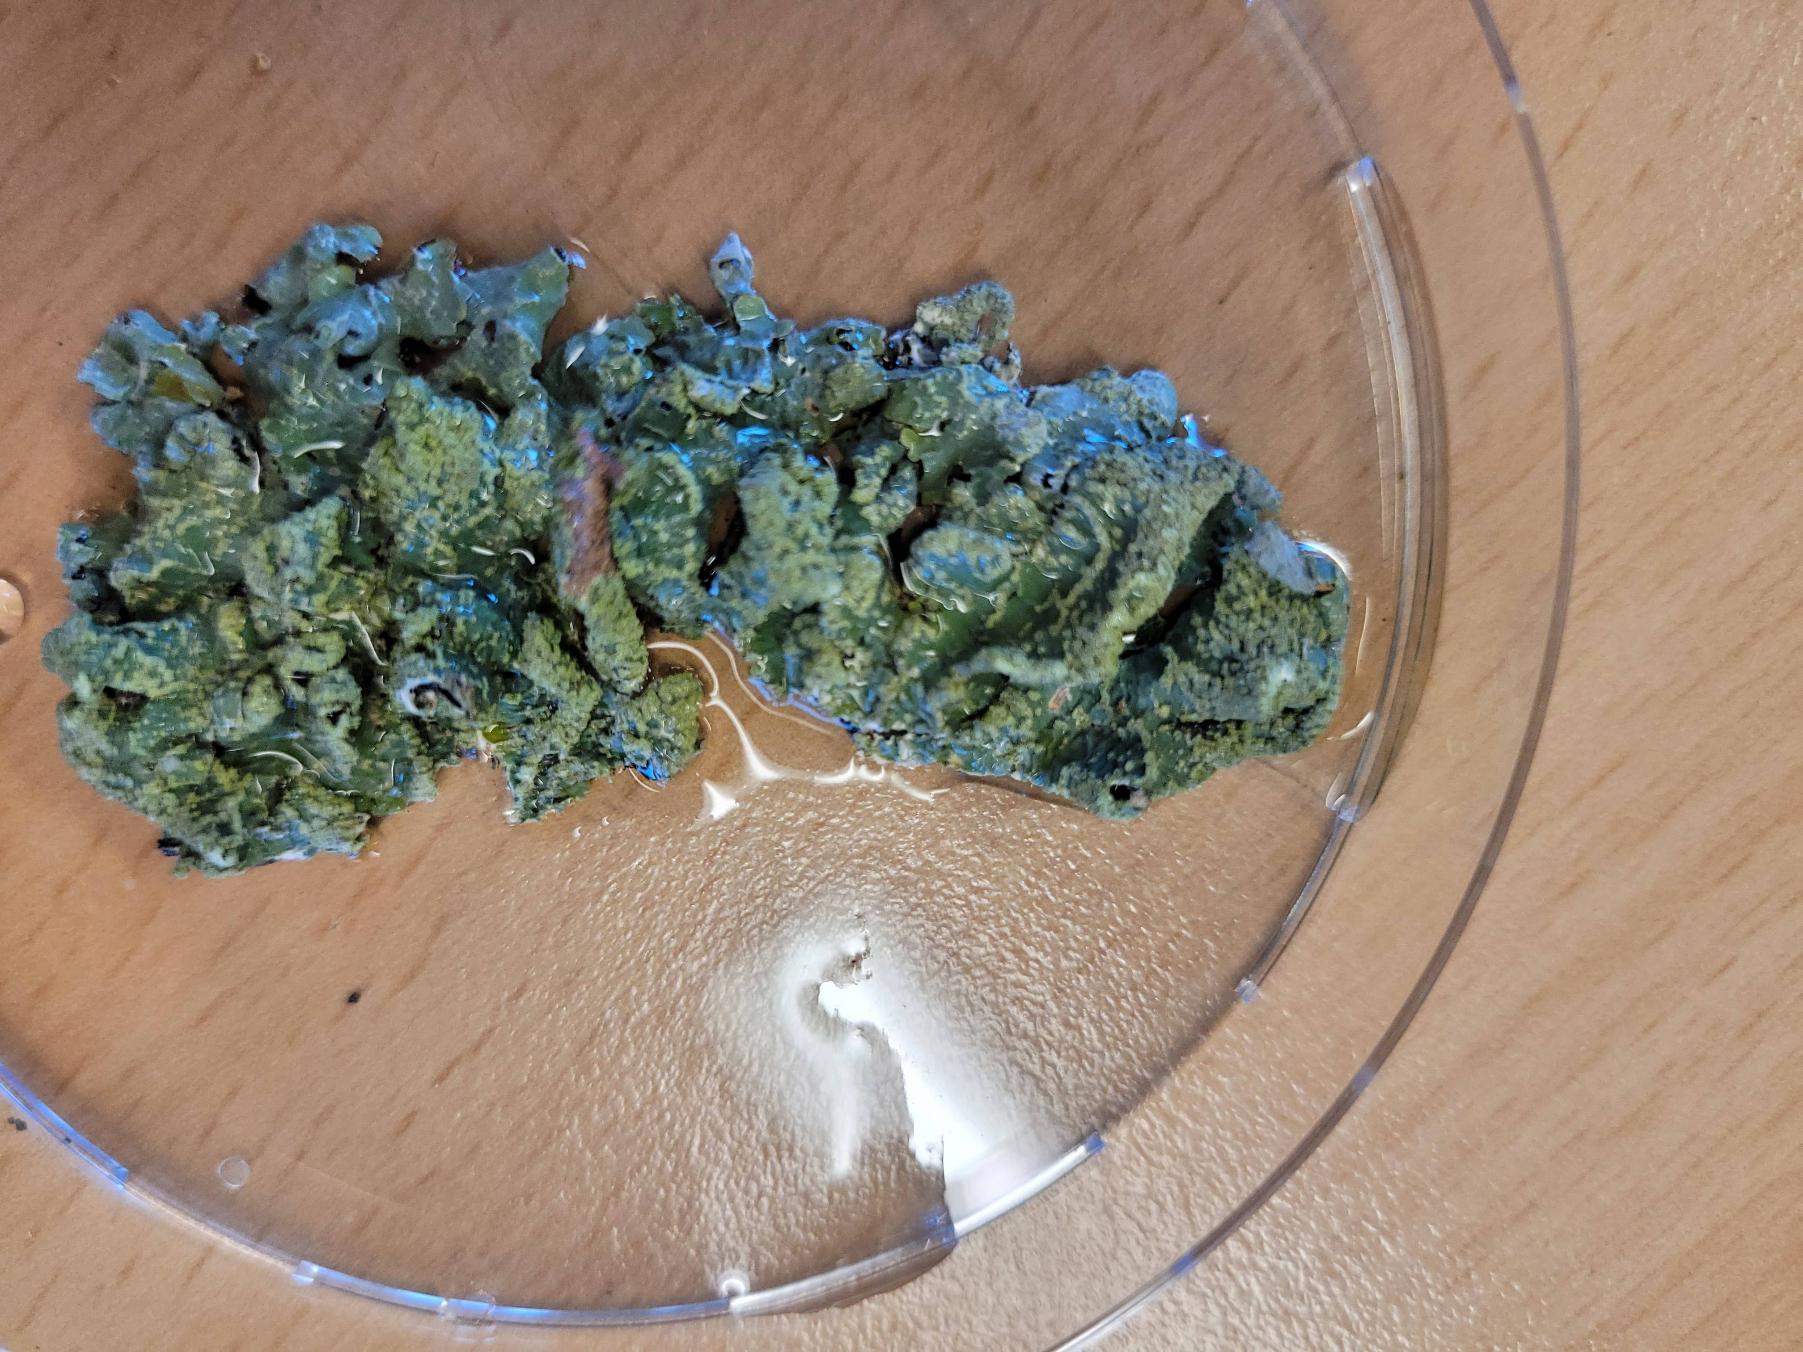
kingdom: Fungi
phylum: Ascomycota
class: Lecanoromycetes
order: Lecanorales
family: Parmeliaceae
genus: Parmelia
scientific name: Parmelia sulcata
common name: Rynket skållav
